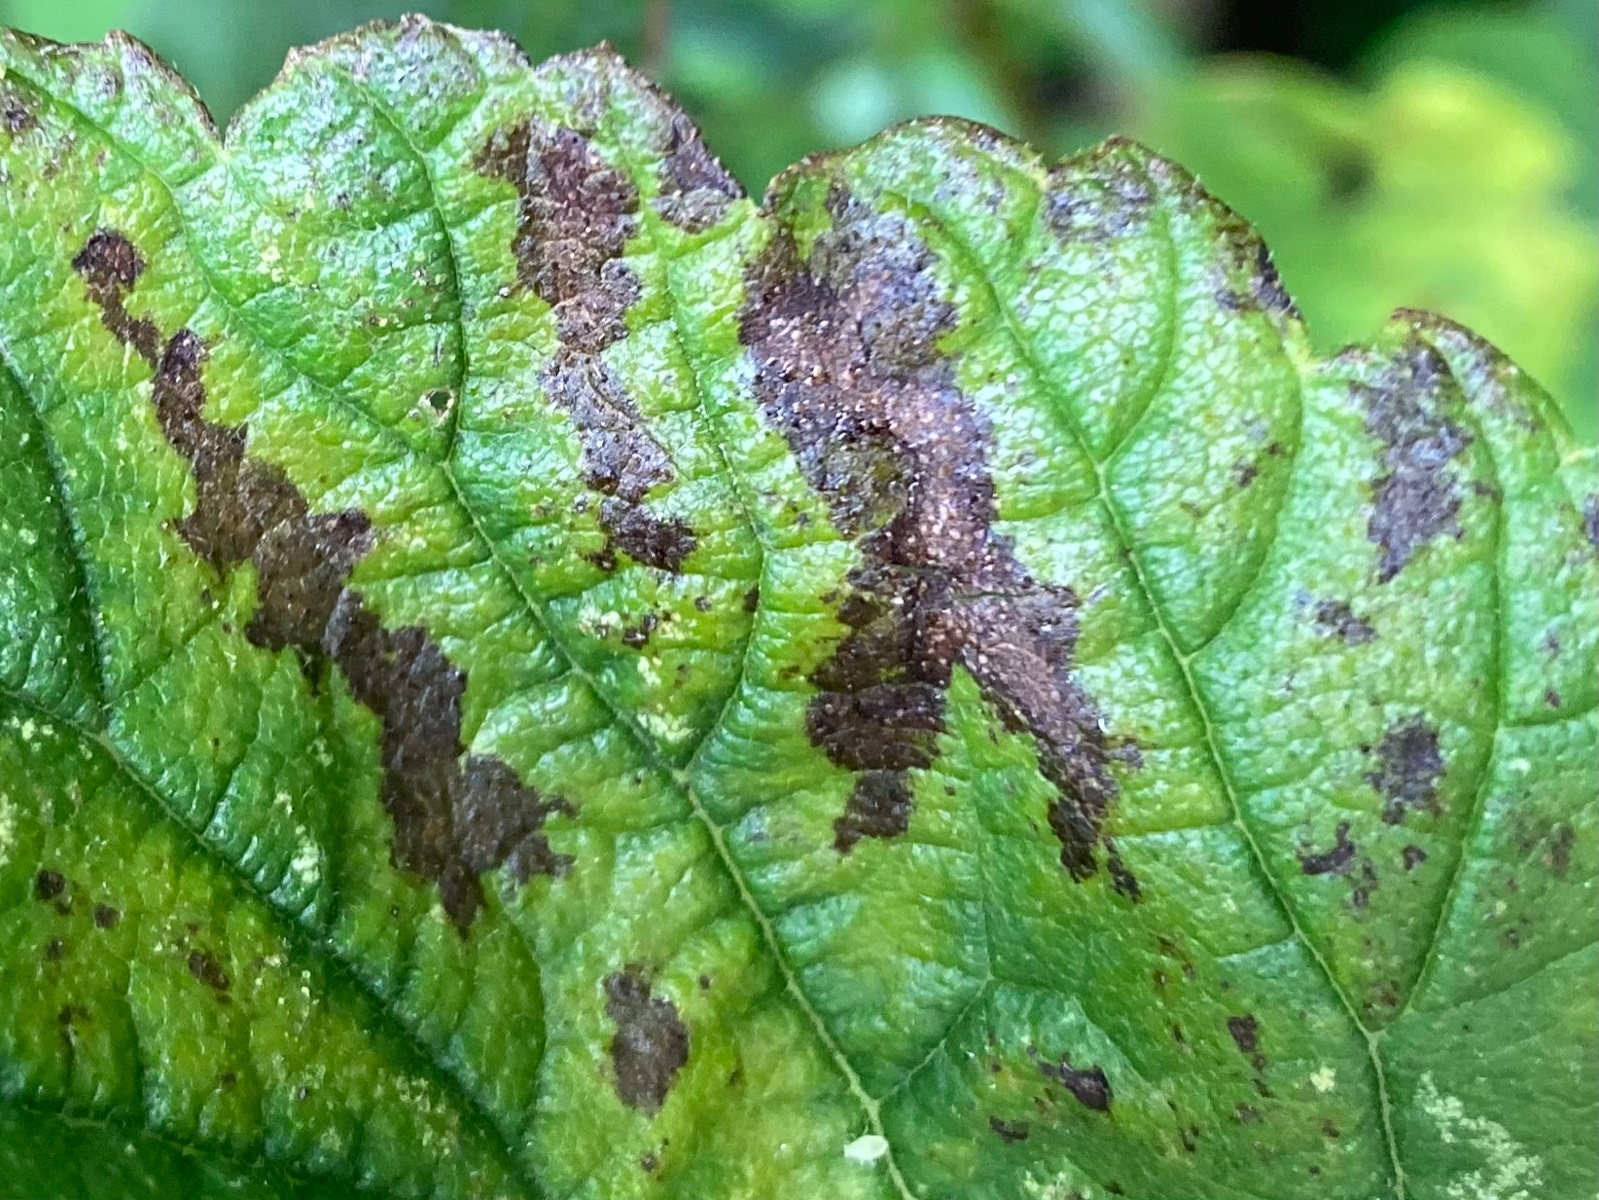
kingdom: Fungi
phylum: Ascomycota
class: Dothideomycetes
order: Mycosphaerellales
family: Mycosphaerellaceae
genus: Mycosphaerella
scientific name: Mycosphaerella ulmi
